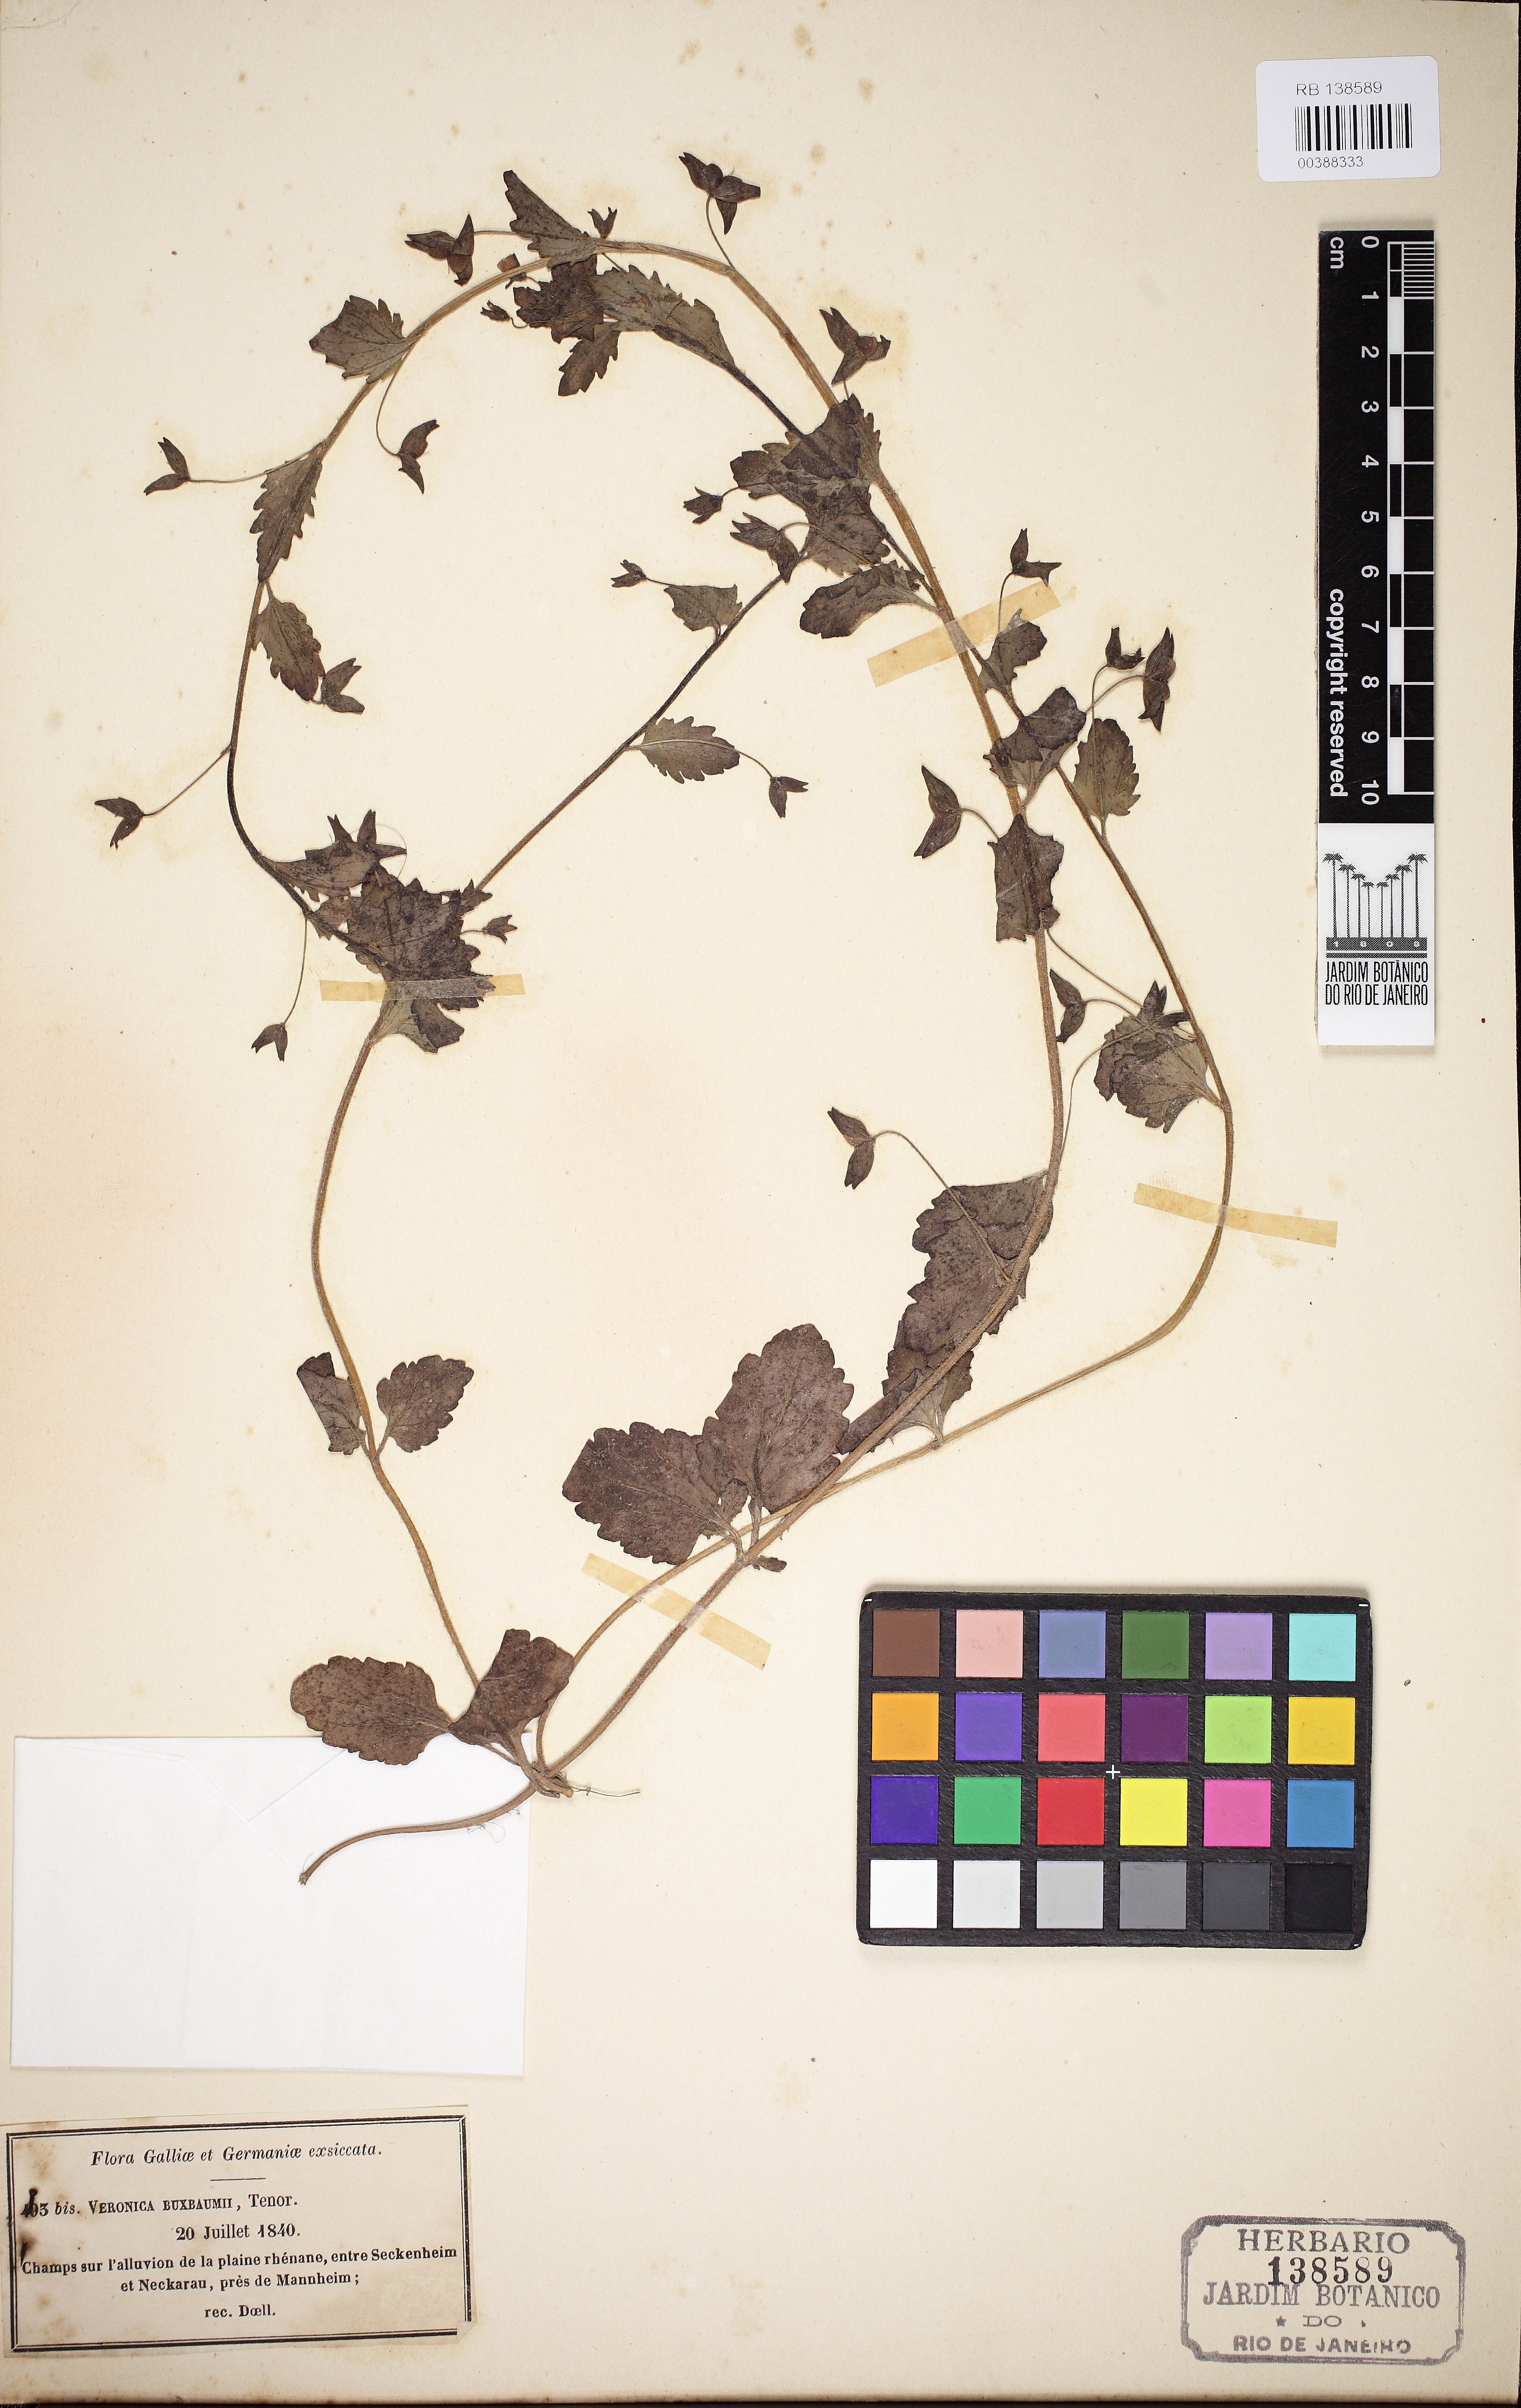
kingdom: Plantae
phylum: Tracheophyta
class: Magnoliopsida
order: Lamiales
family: Plantaginaceae
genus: Veronica
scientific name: Veronica pectinata
